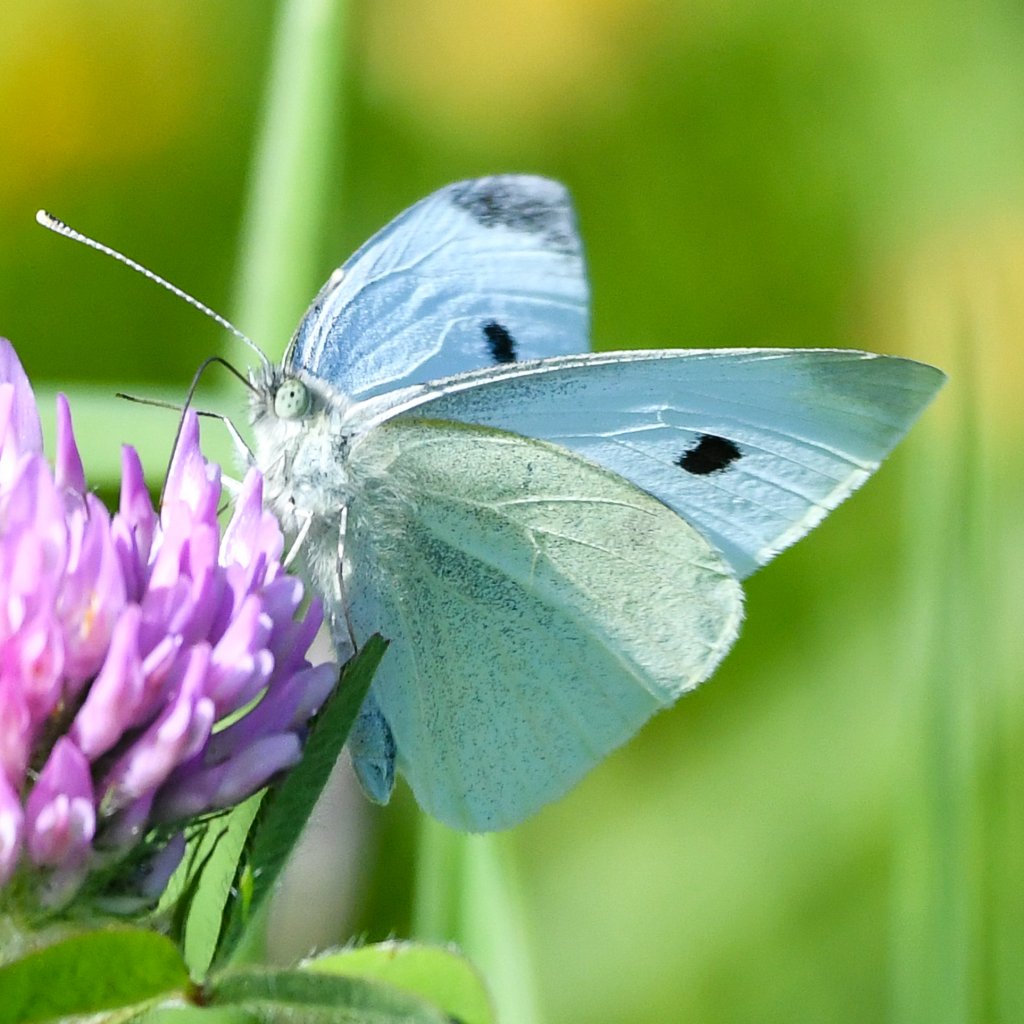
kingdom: Animalia
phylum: Arthropoda
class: Insecta
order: Lepidoptera
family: Pieridae
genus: Pieris
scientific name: Pieris rapae
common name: Cabbage White
